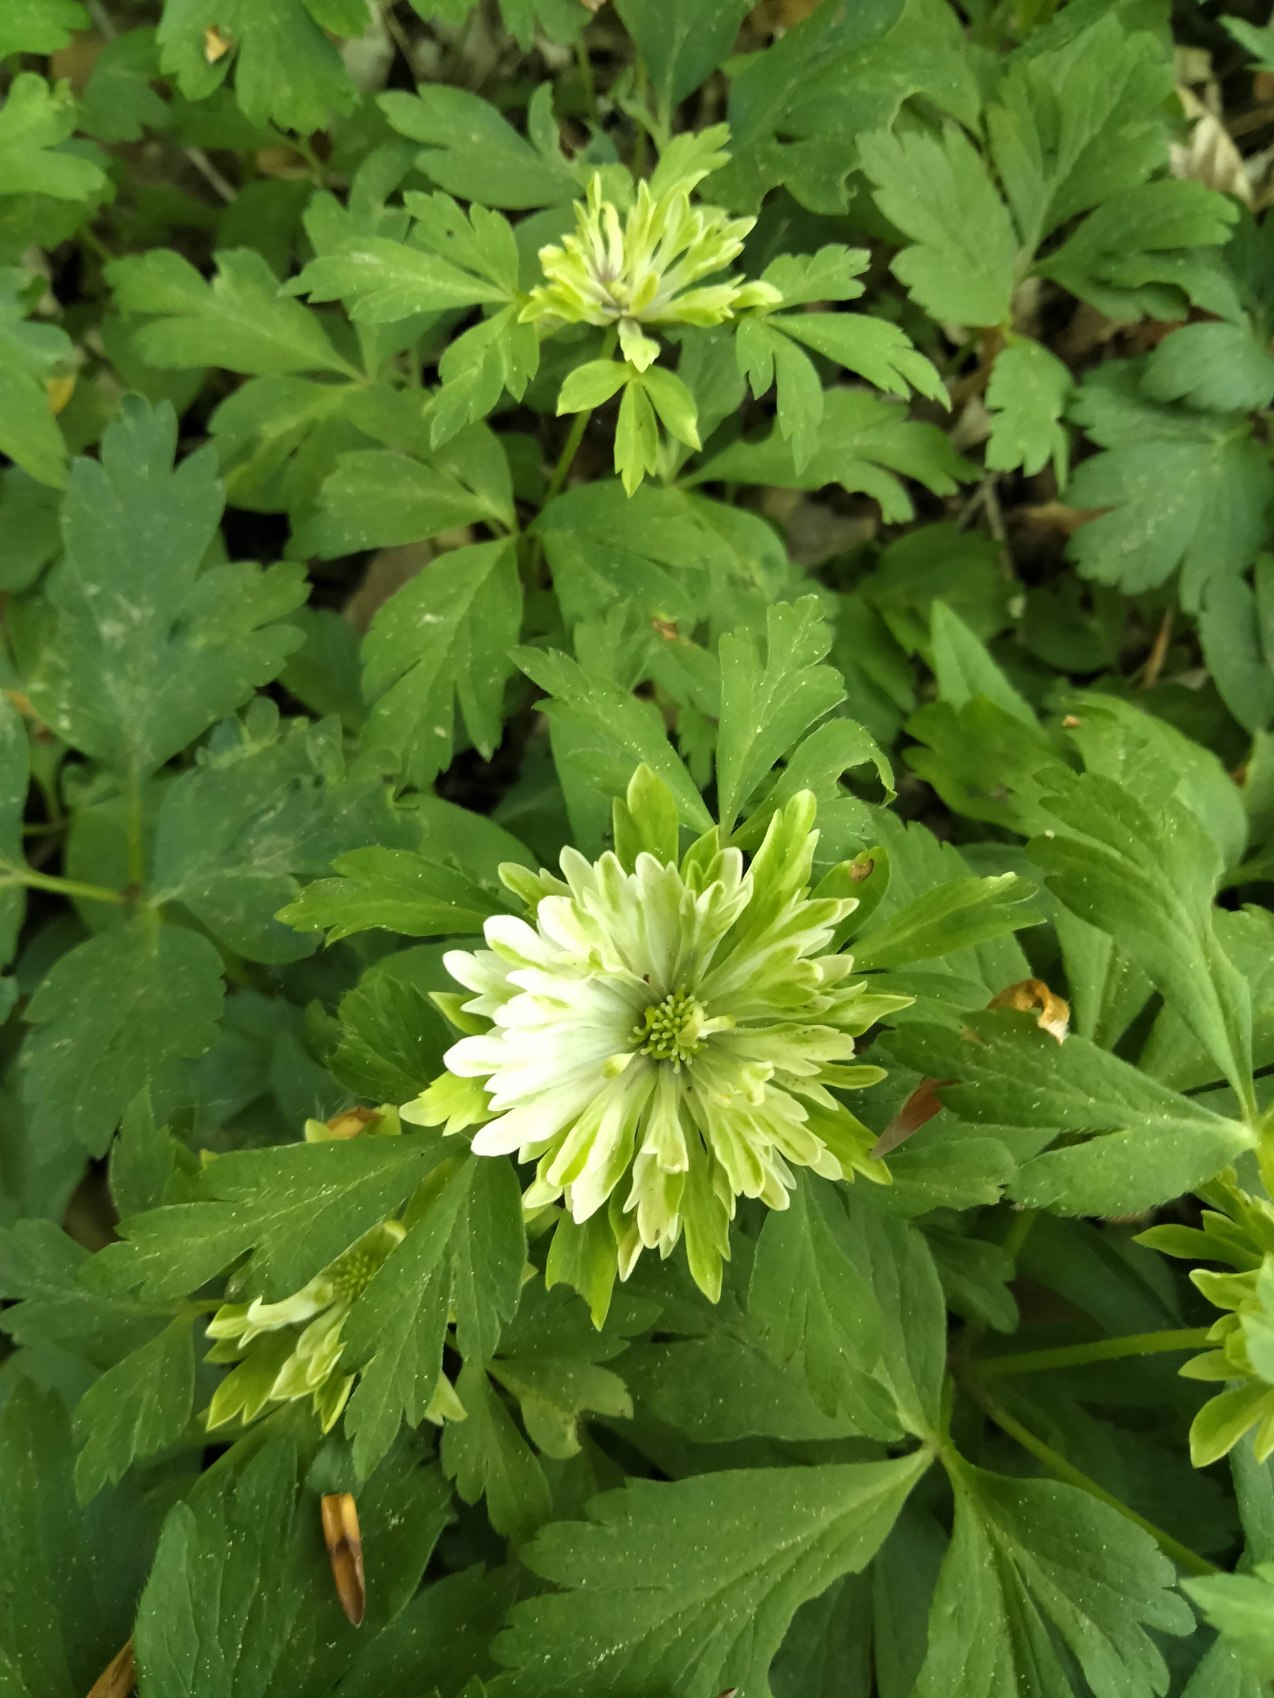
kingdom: Plantae
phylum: Tracheophyta
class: Magnoliopsida
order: Ranunculales
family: Ranunculaceae
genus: Anemone
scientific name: Anemone nemorosa
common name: Hvid anemone
